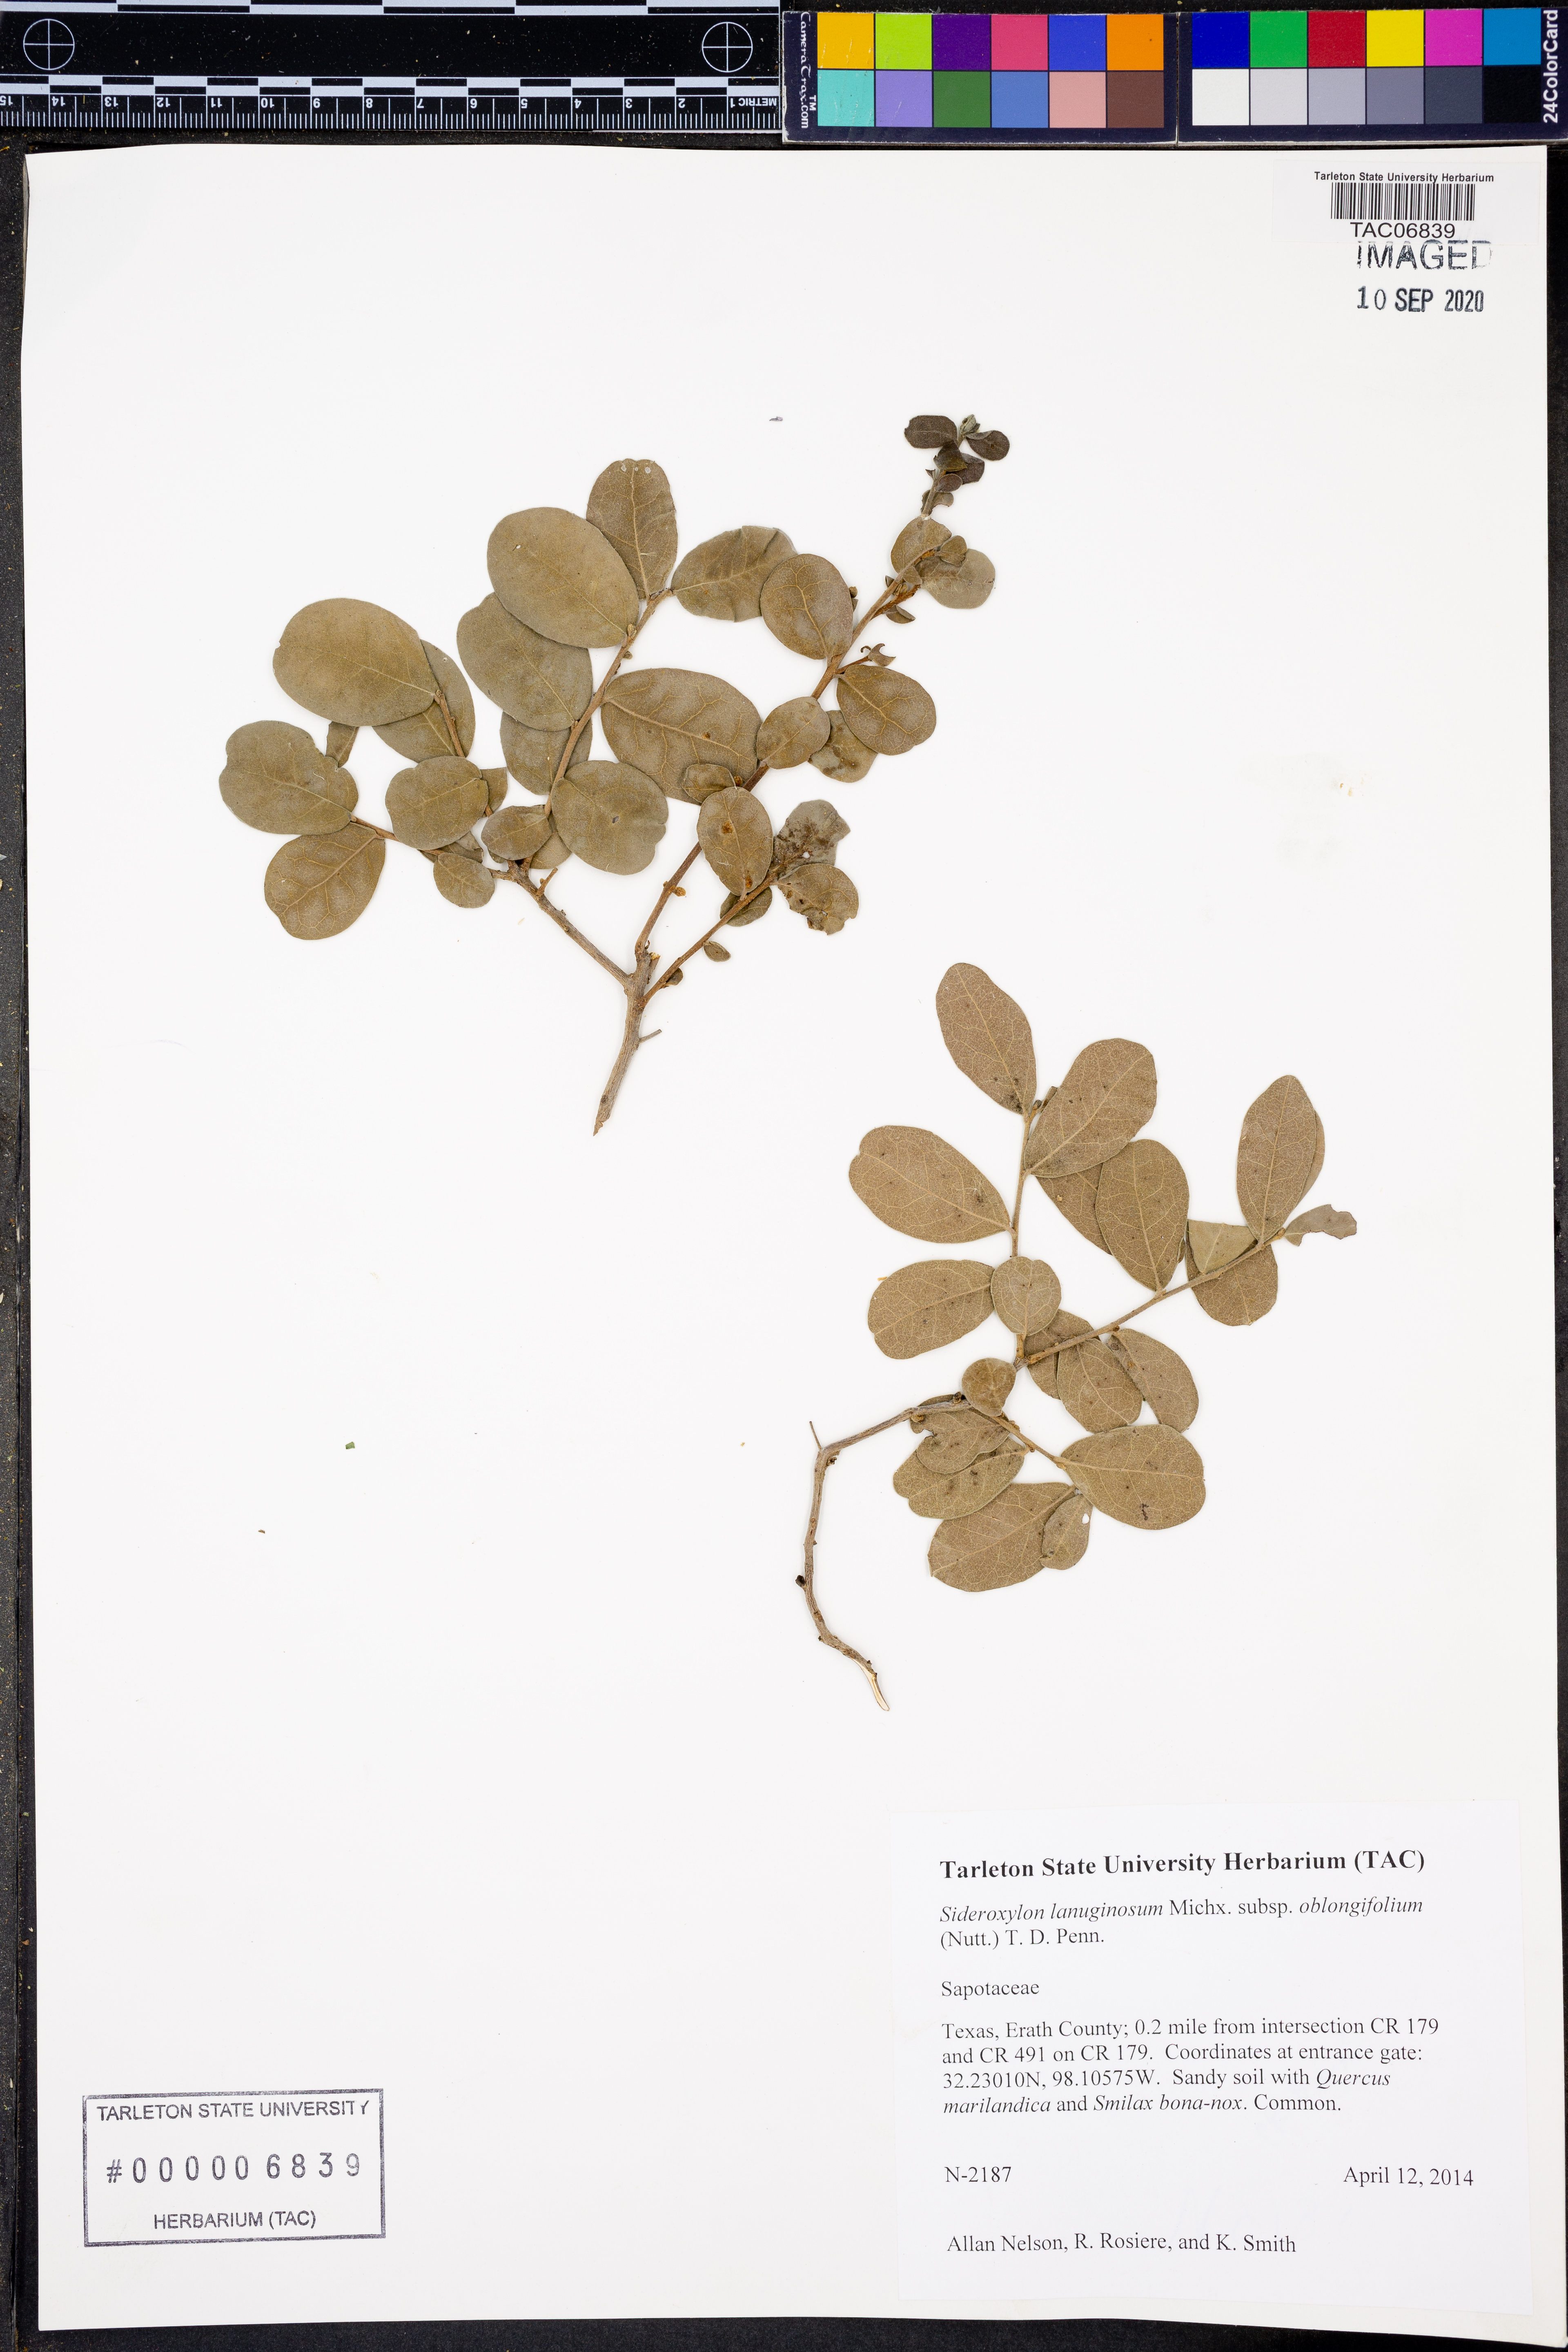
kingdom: Plantae
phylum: Tracheophyta
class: Magnoliopsida
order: Ericales
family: Sapotaceae
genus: Sideroxylon
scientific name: Sideroxylon lanuginosum
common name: Chittamwood
